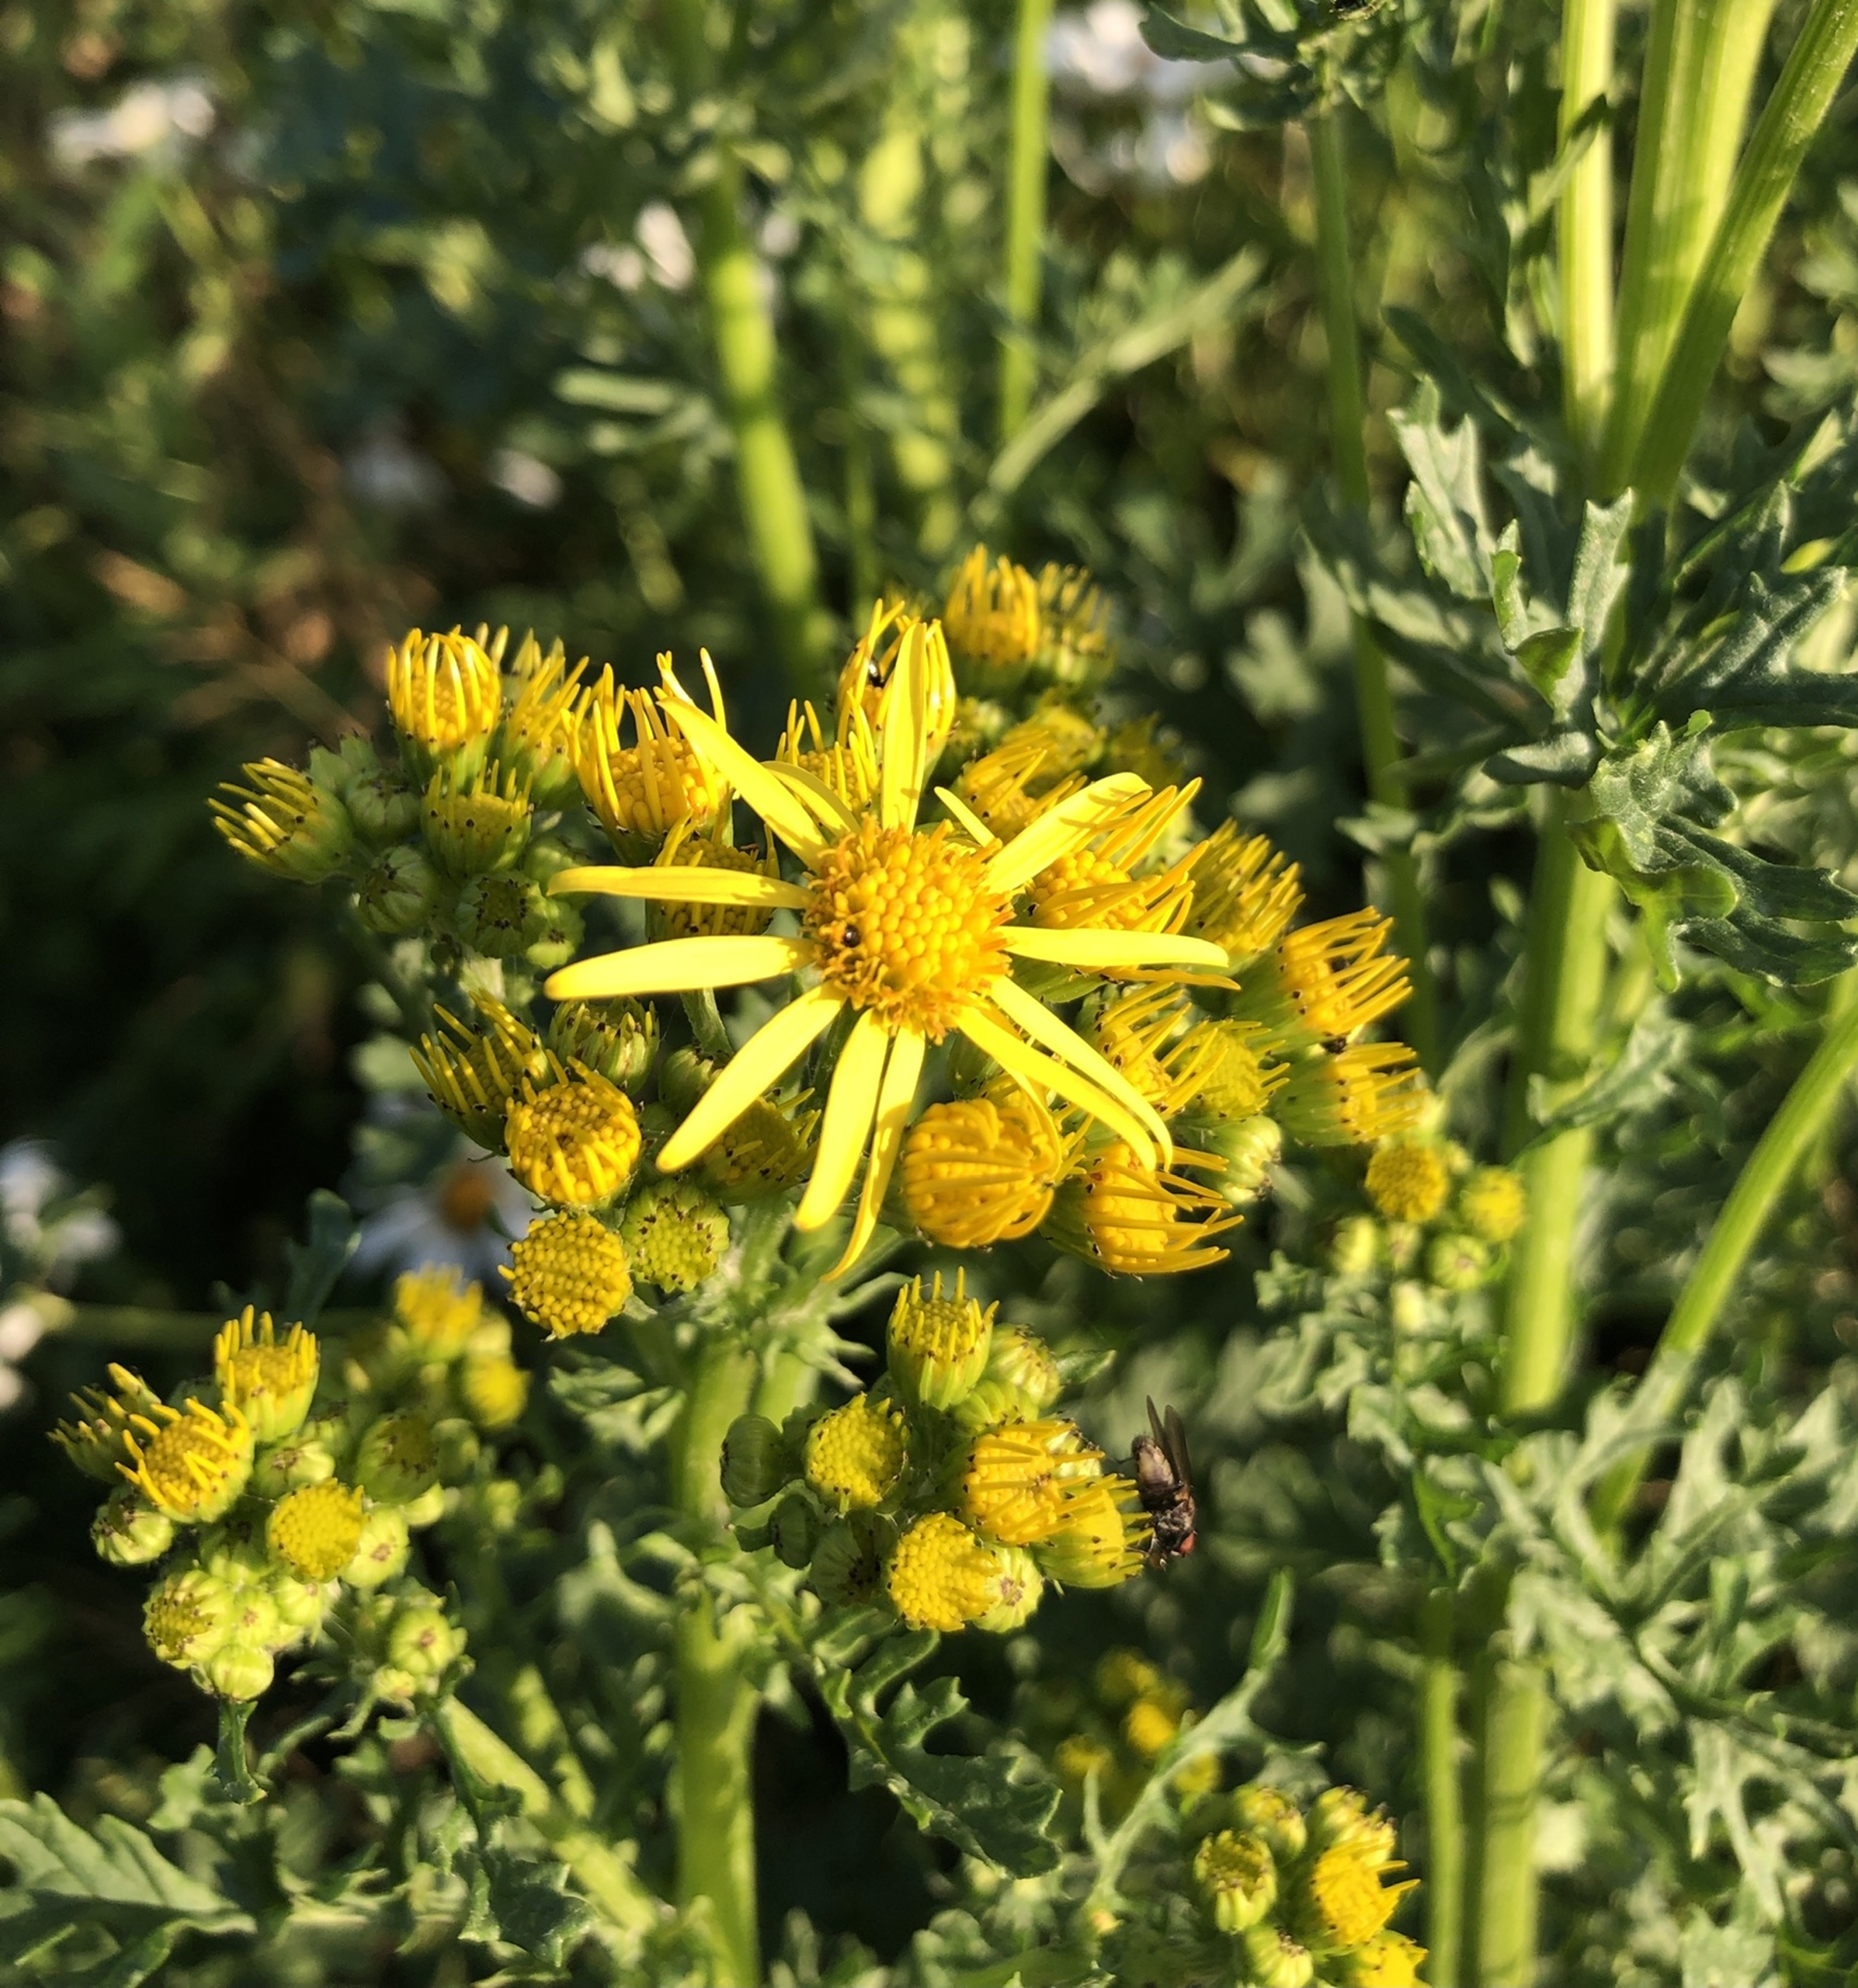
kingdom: Plantae
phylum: Tracheophyta
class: Magnoliopsida
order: Asterales
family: Asteraceae
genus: Jacobaea
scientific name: Jacobaea vulgaris
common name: Eng-brandbæger
